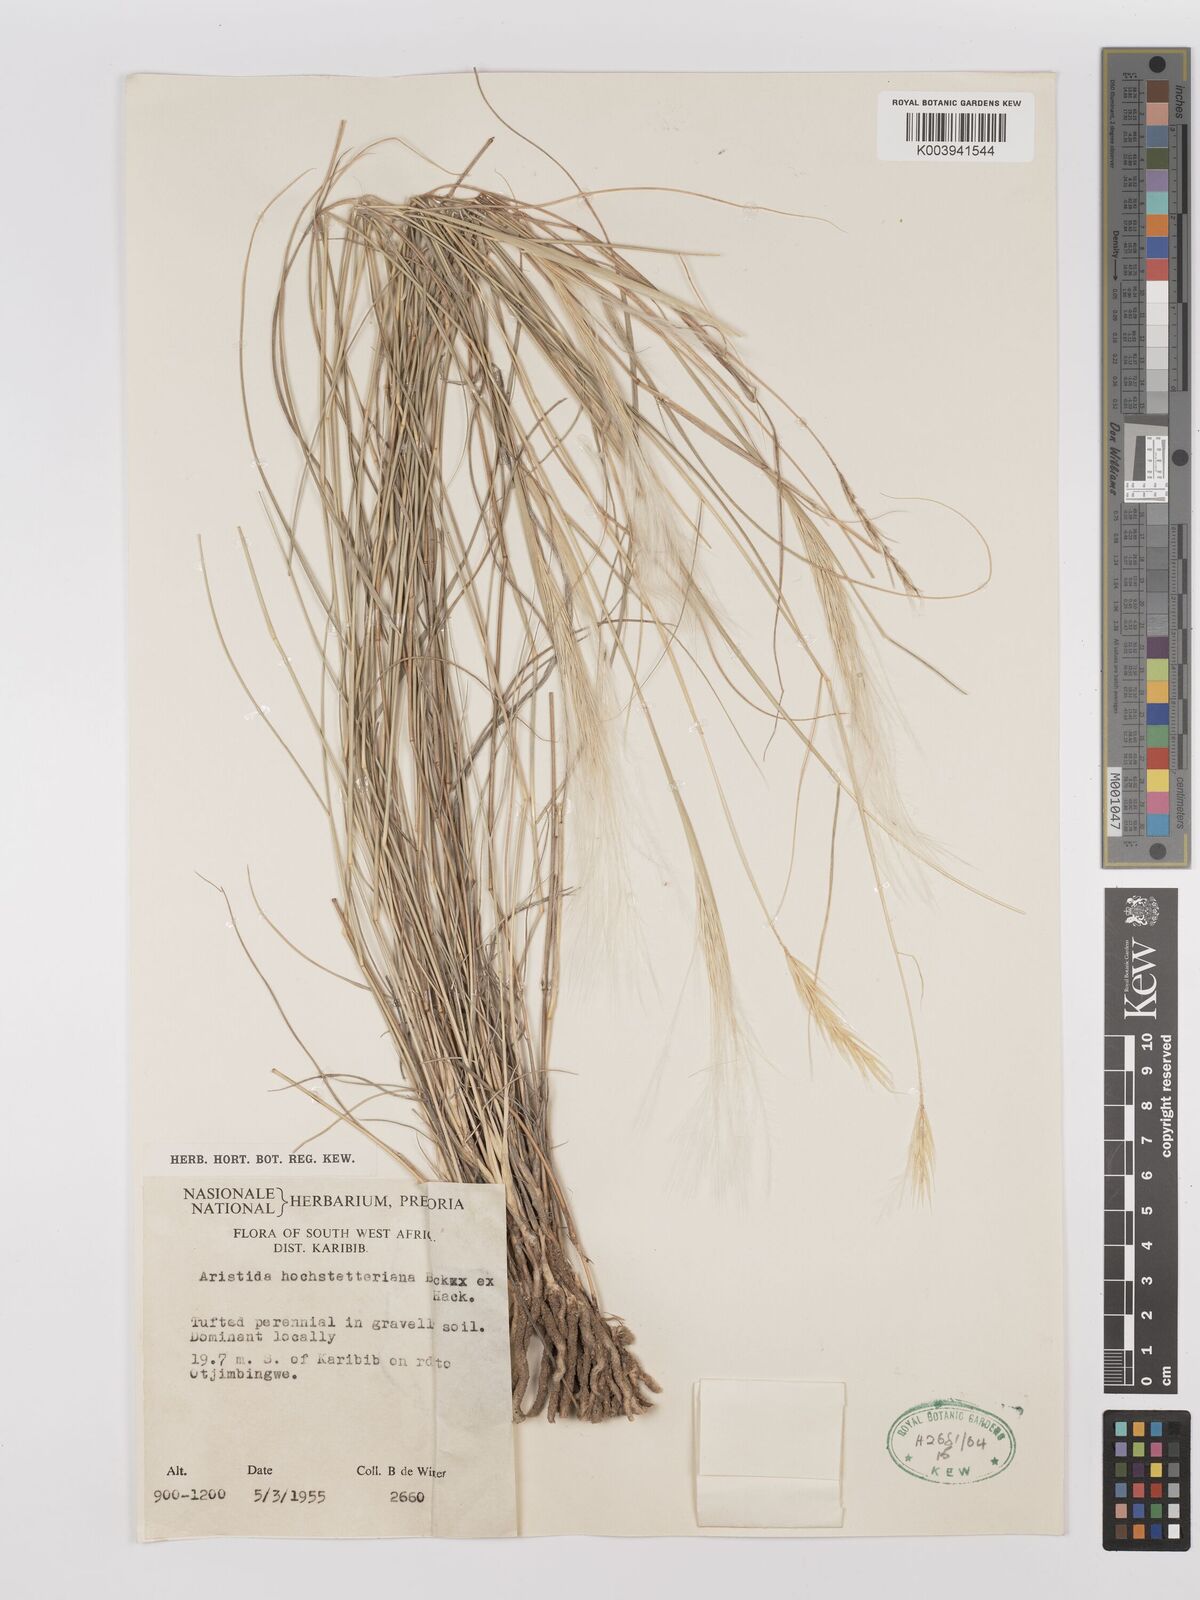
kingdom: Plantae
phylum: Tracheophyta
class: Liliopsida
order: Poales
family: Poaceae
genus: Stipagrostis
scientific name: Stipagrostis hochstetteriana
